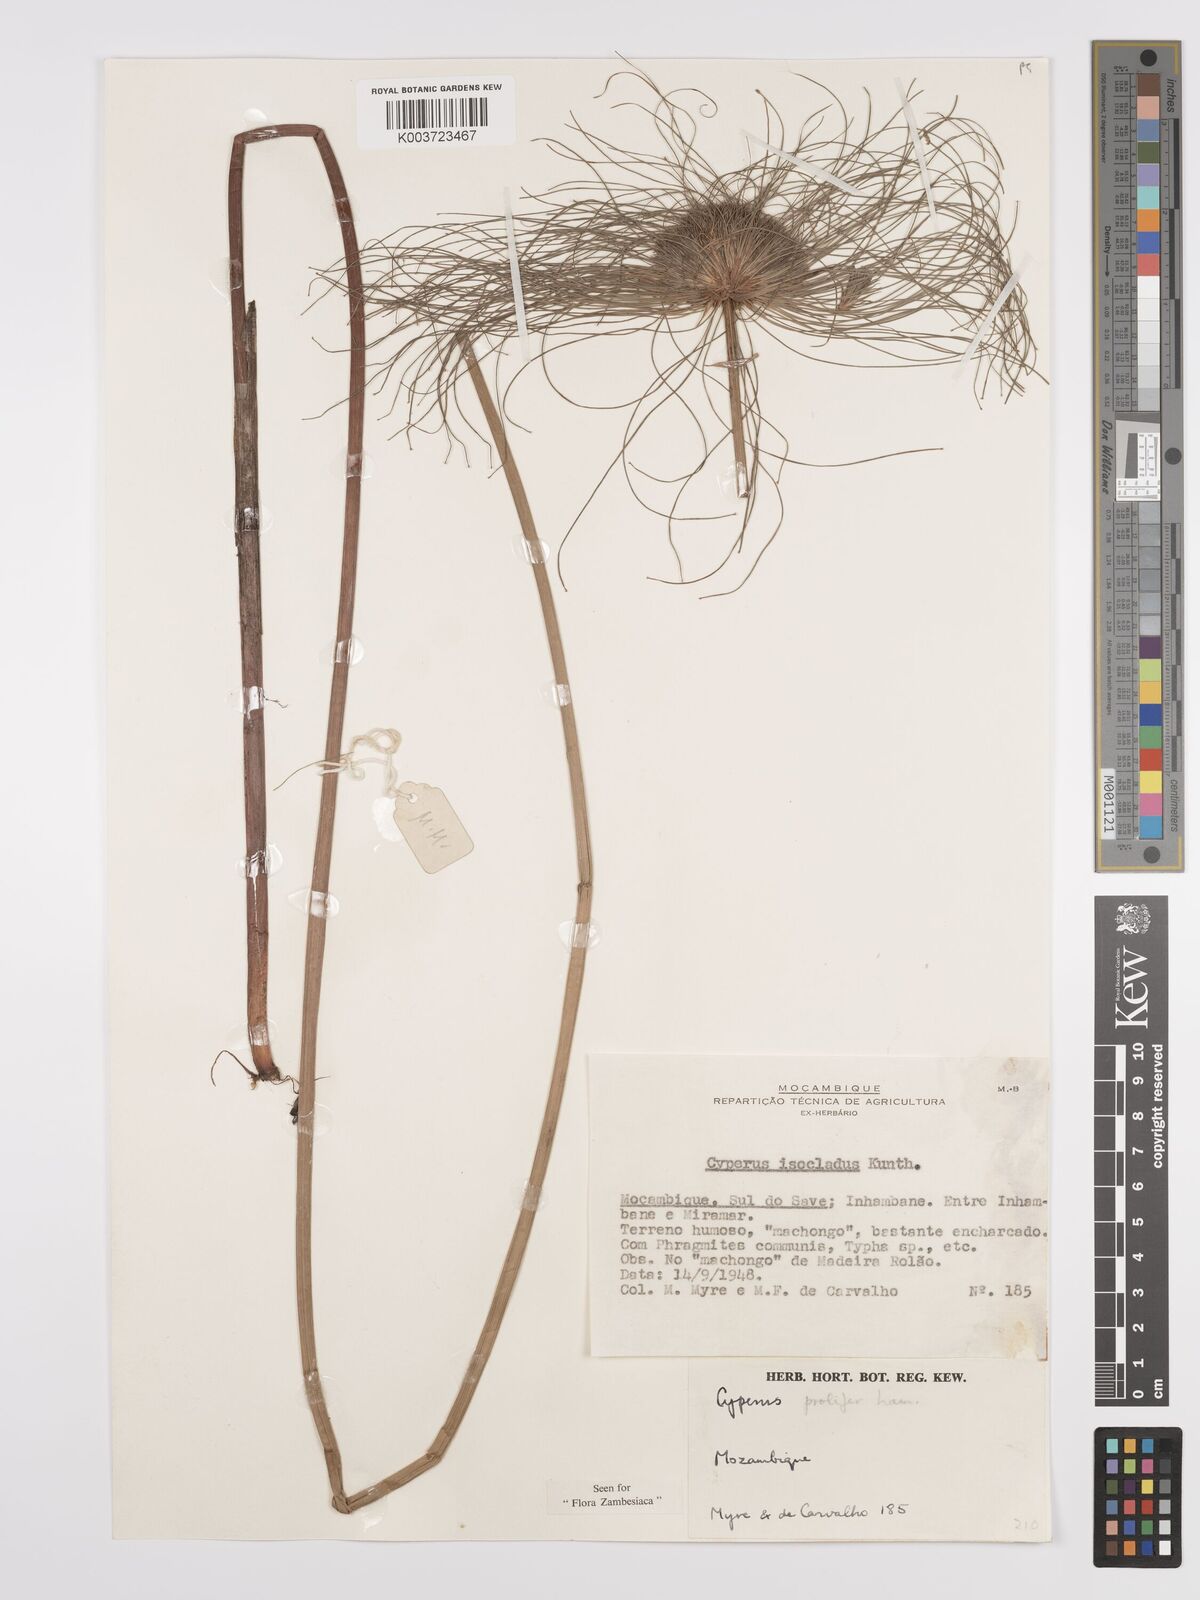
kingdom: Plantae
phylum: Tracheophyta
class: Liliopsida
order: Poales
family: Cyperaceae
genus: Cyperus
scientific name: Cyperus prolifer
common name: Miniature flatsedge
